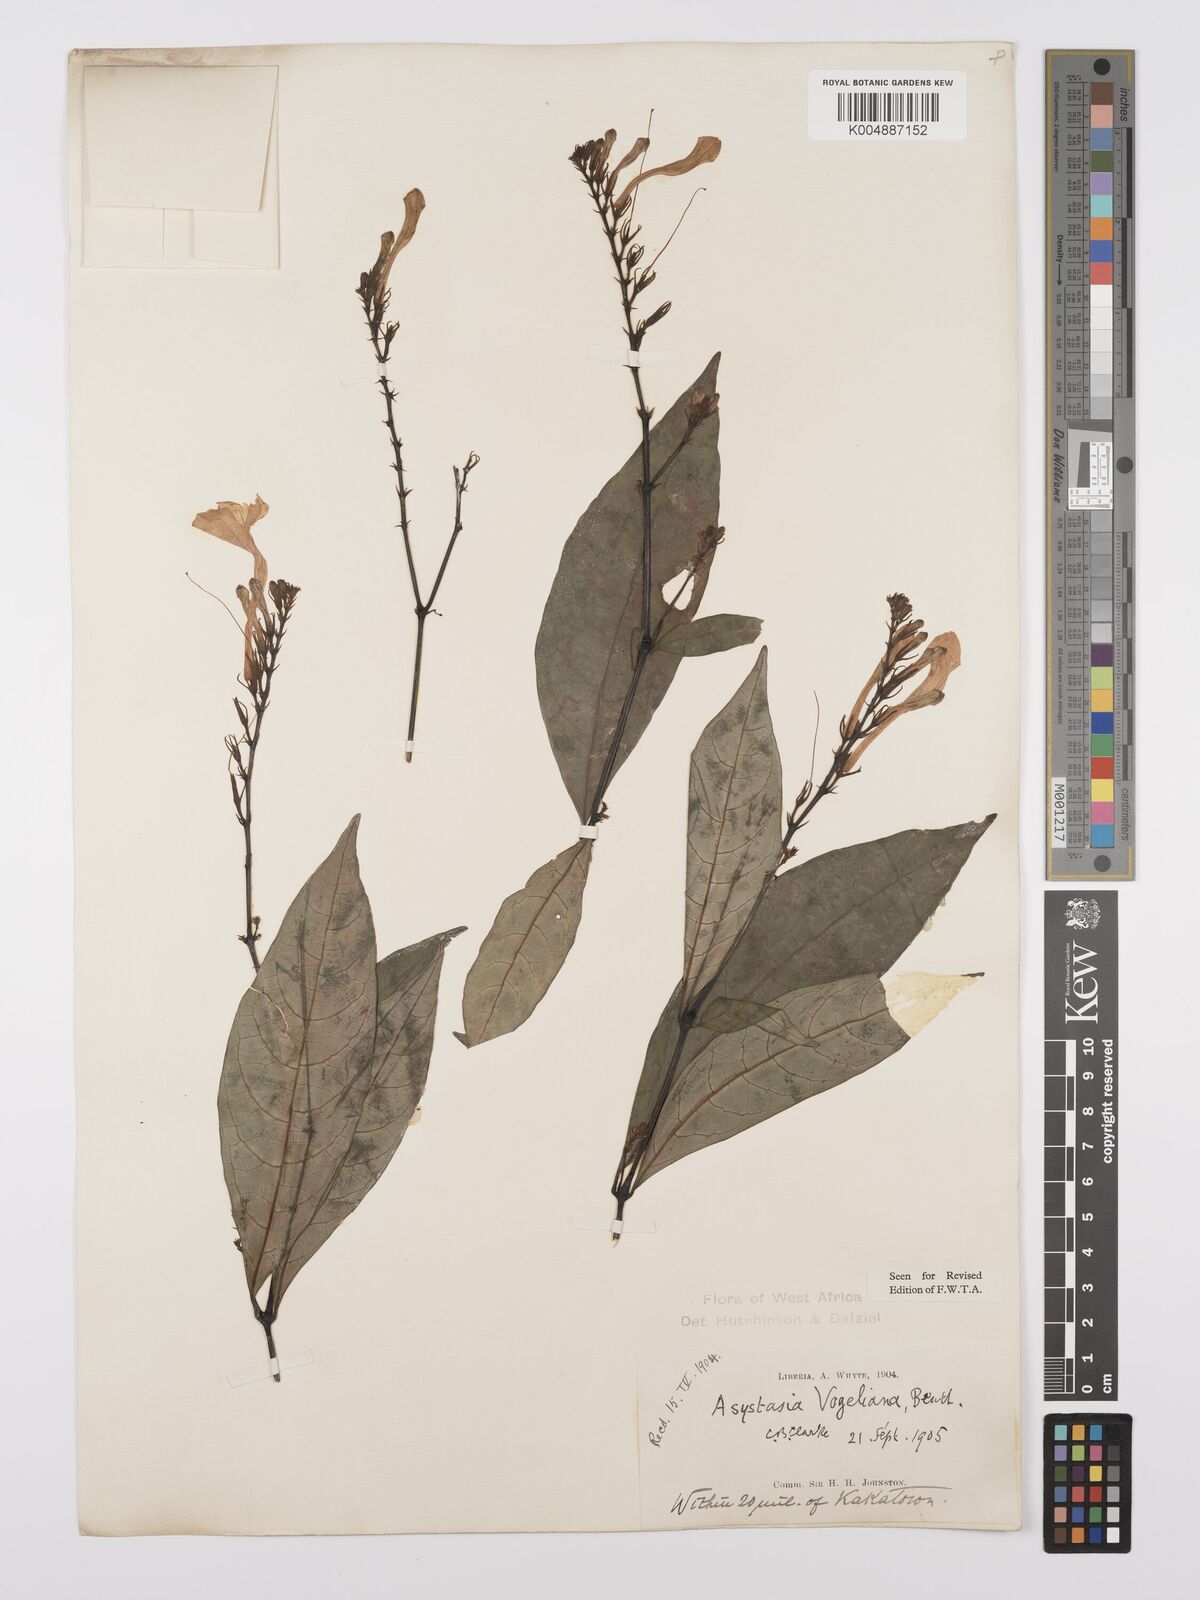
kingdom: Plantae
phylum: Tracheophyta
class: Magnoliopsida
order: Lamiales
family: Acanthaceae
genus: Asystasia
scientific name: Asystasia vogeliana
